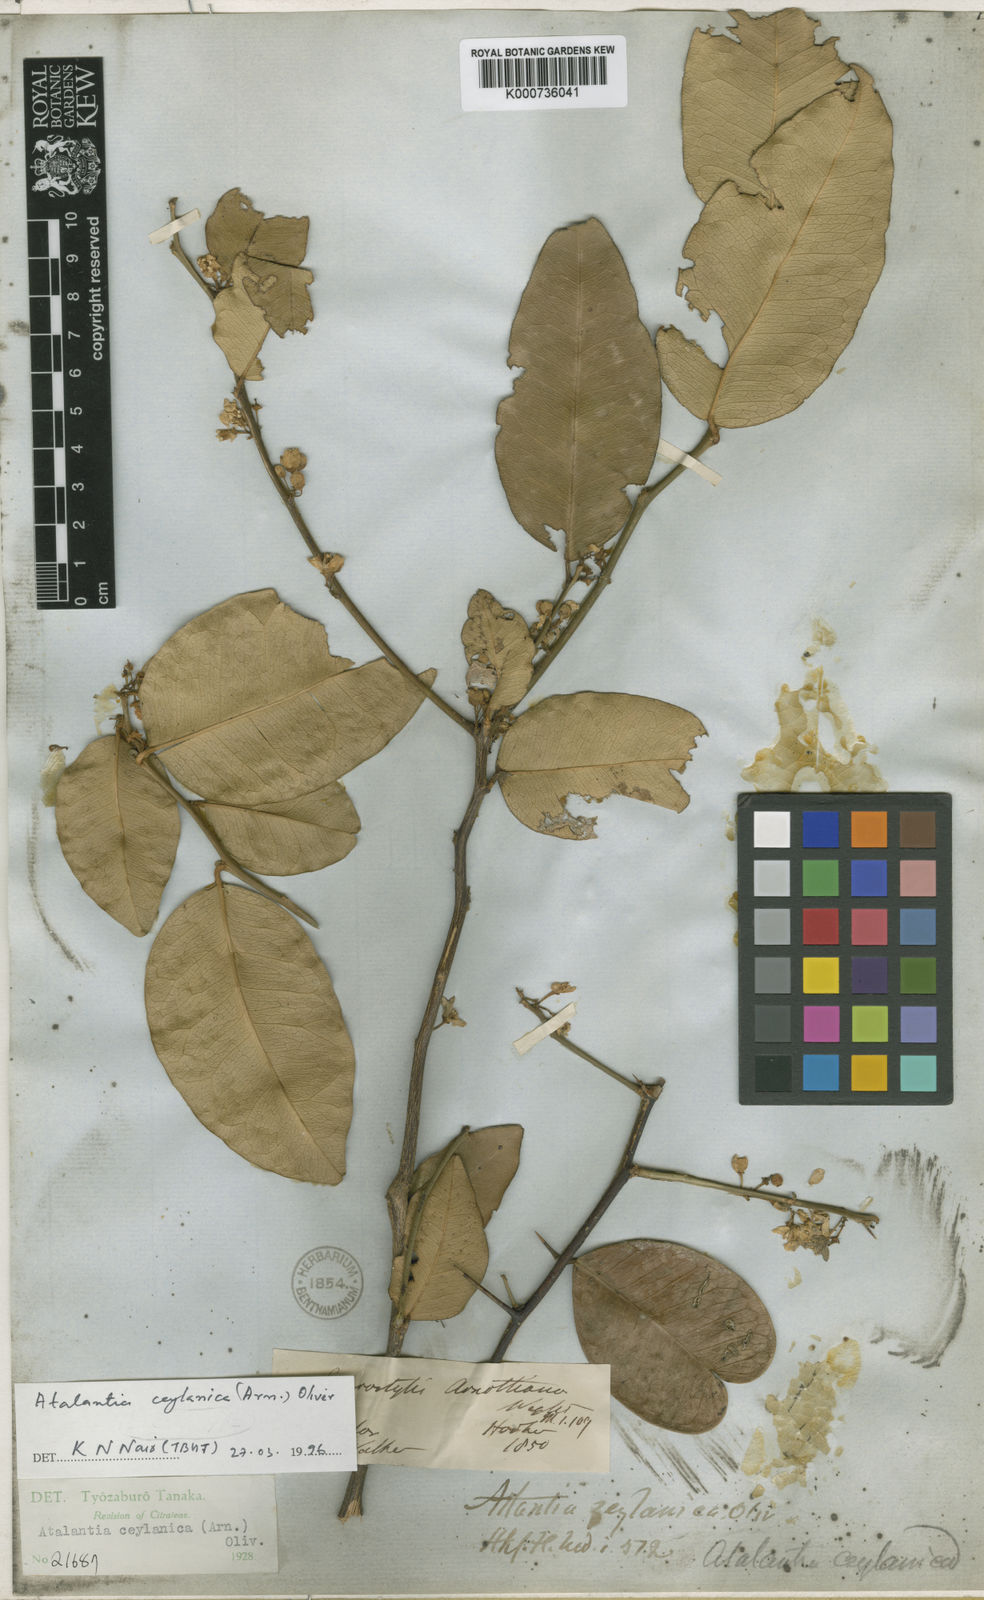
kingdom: Plantae
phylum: Tracheophyta
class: Magnoliopsida
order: Sapindales
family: Rutaceae
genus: Atalantia
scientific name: Atalantia ceylanica
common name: Ceylon-atalantia
